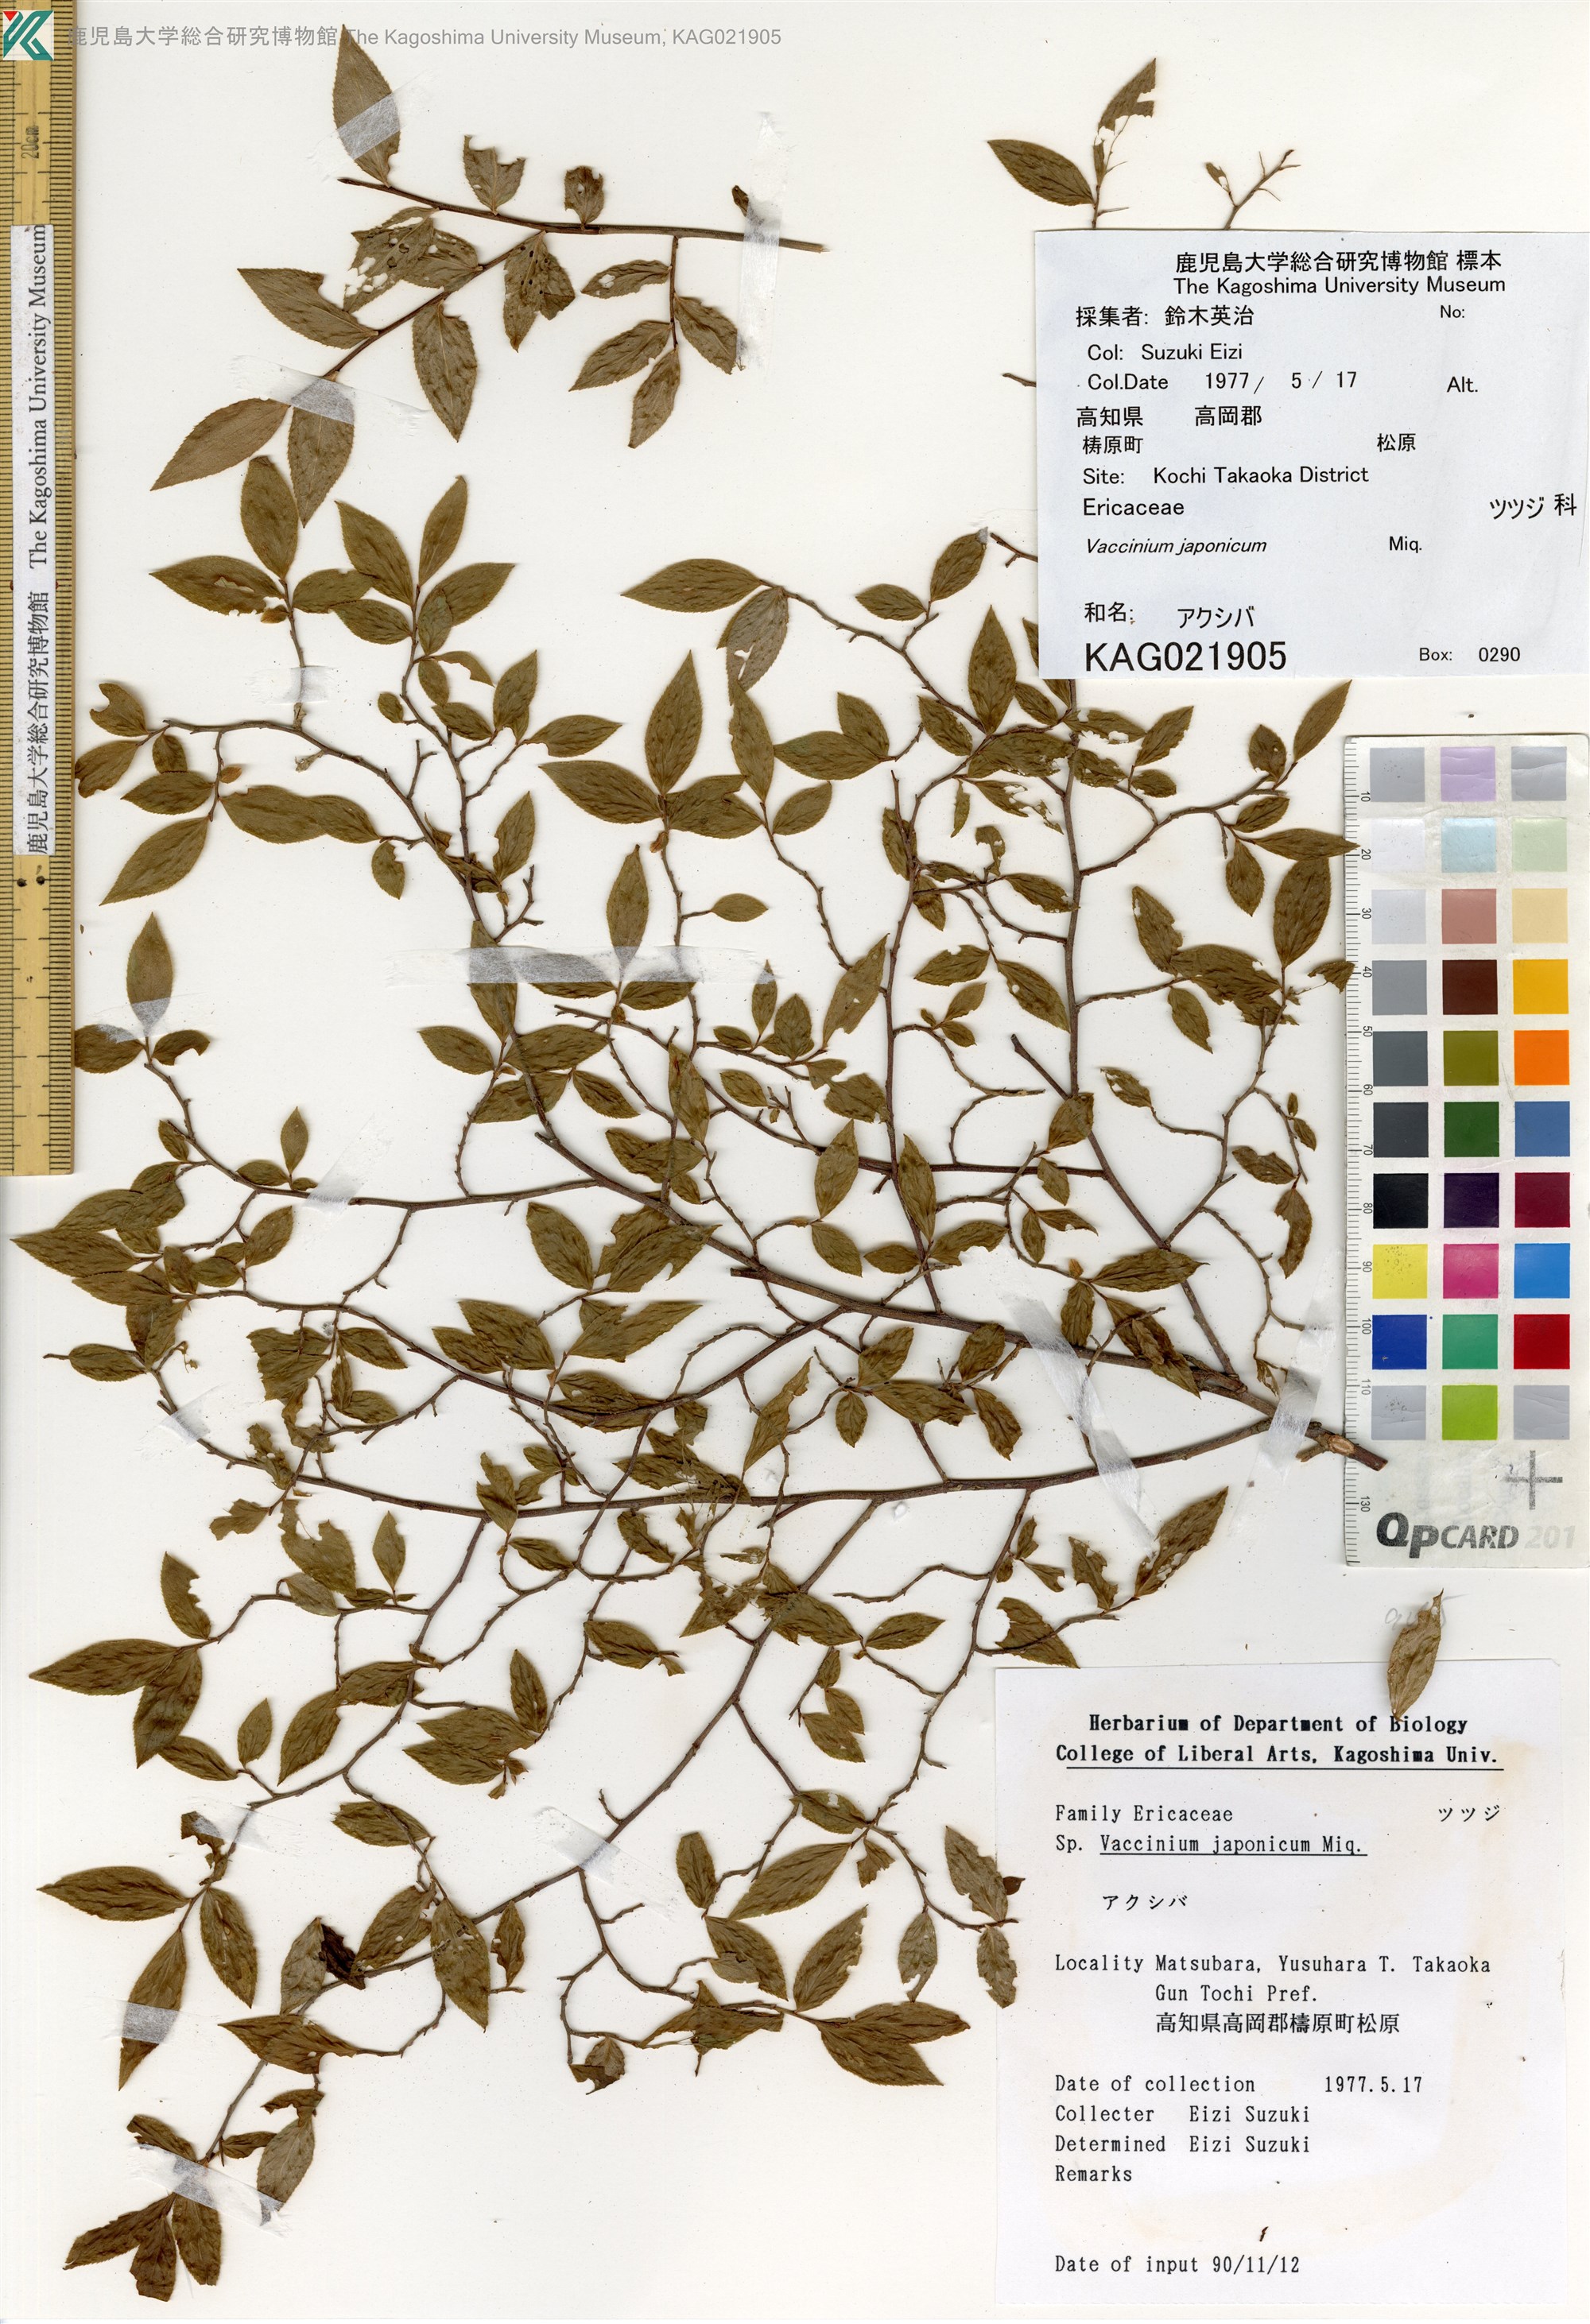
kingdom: Plantae
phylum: Tracheophyta
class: Magnoliopsida
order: Ericales
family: Ericaceae
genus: Vaccinium
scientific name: Vaccinium japonicum
